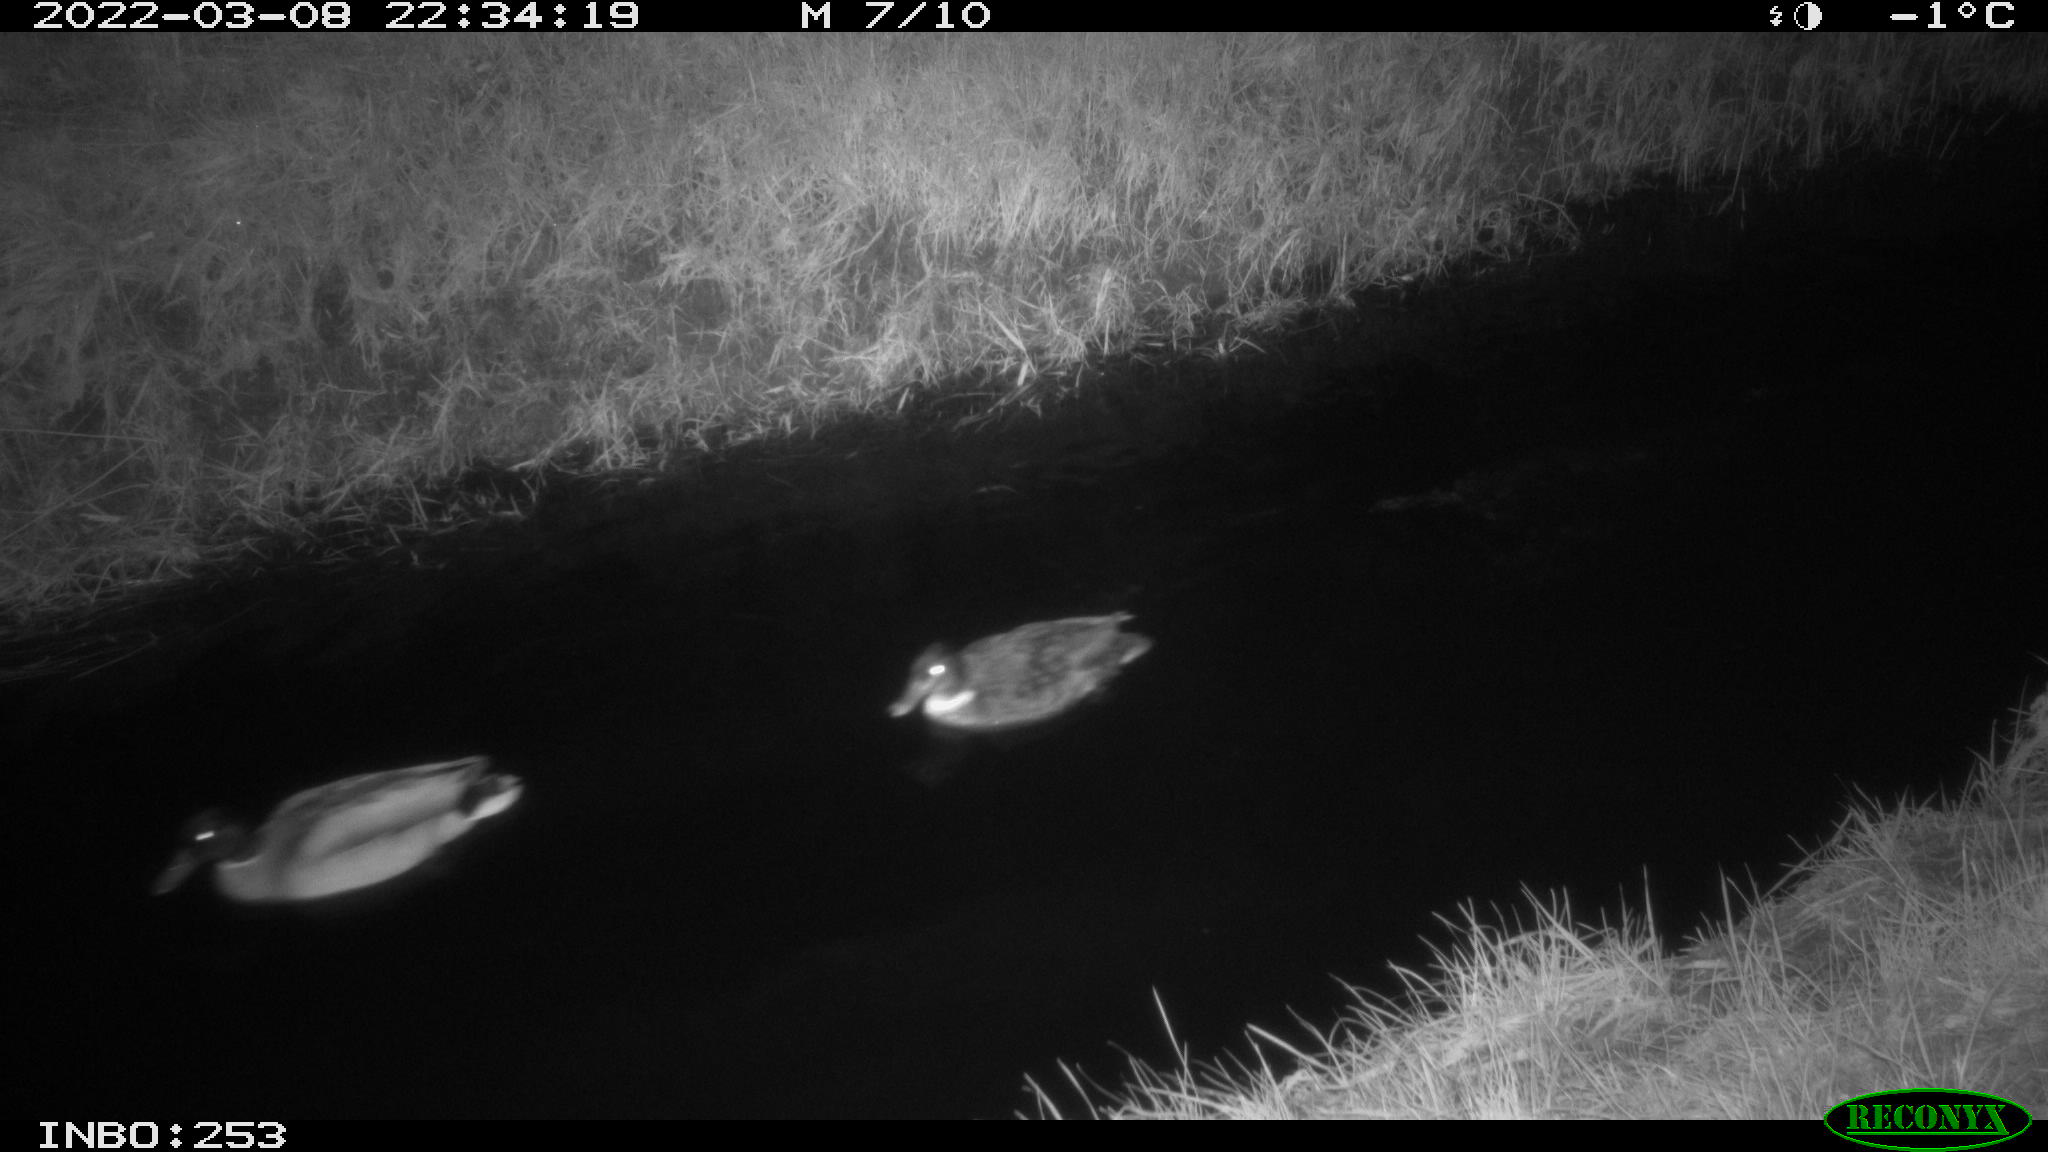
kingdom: Animalia
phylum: Chordata
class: Aves
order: Anseriformes
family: Anatidae
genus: Anas
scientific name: Anas platyrhynchos
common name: Mallard
